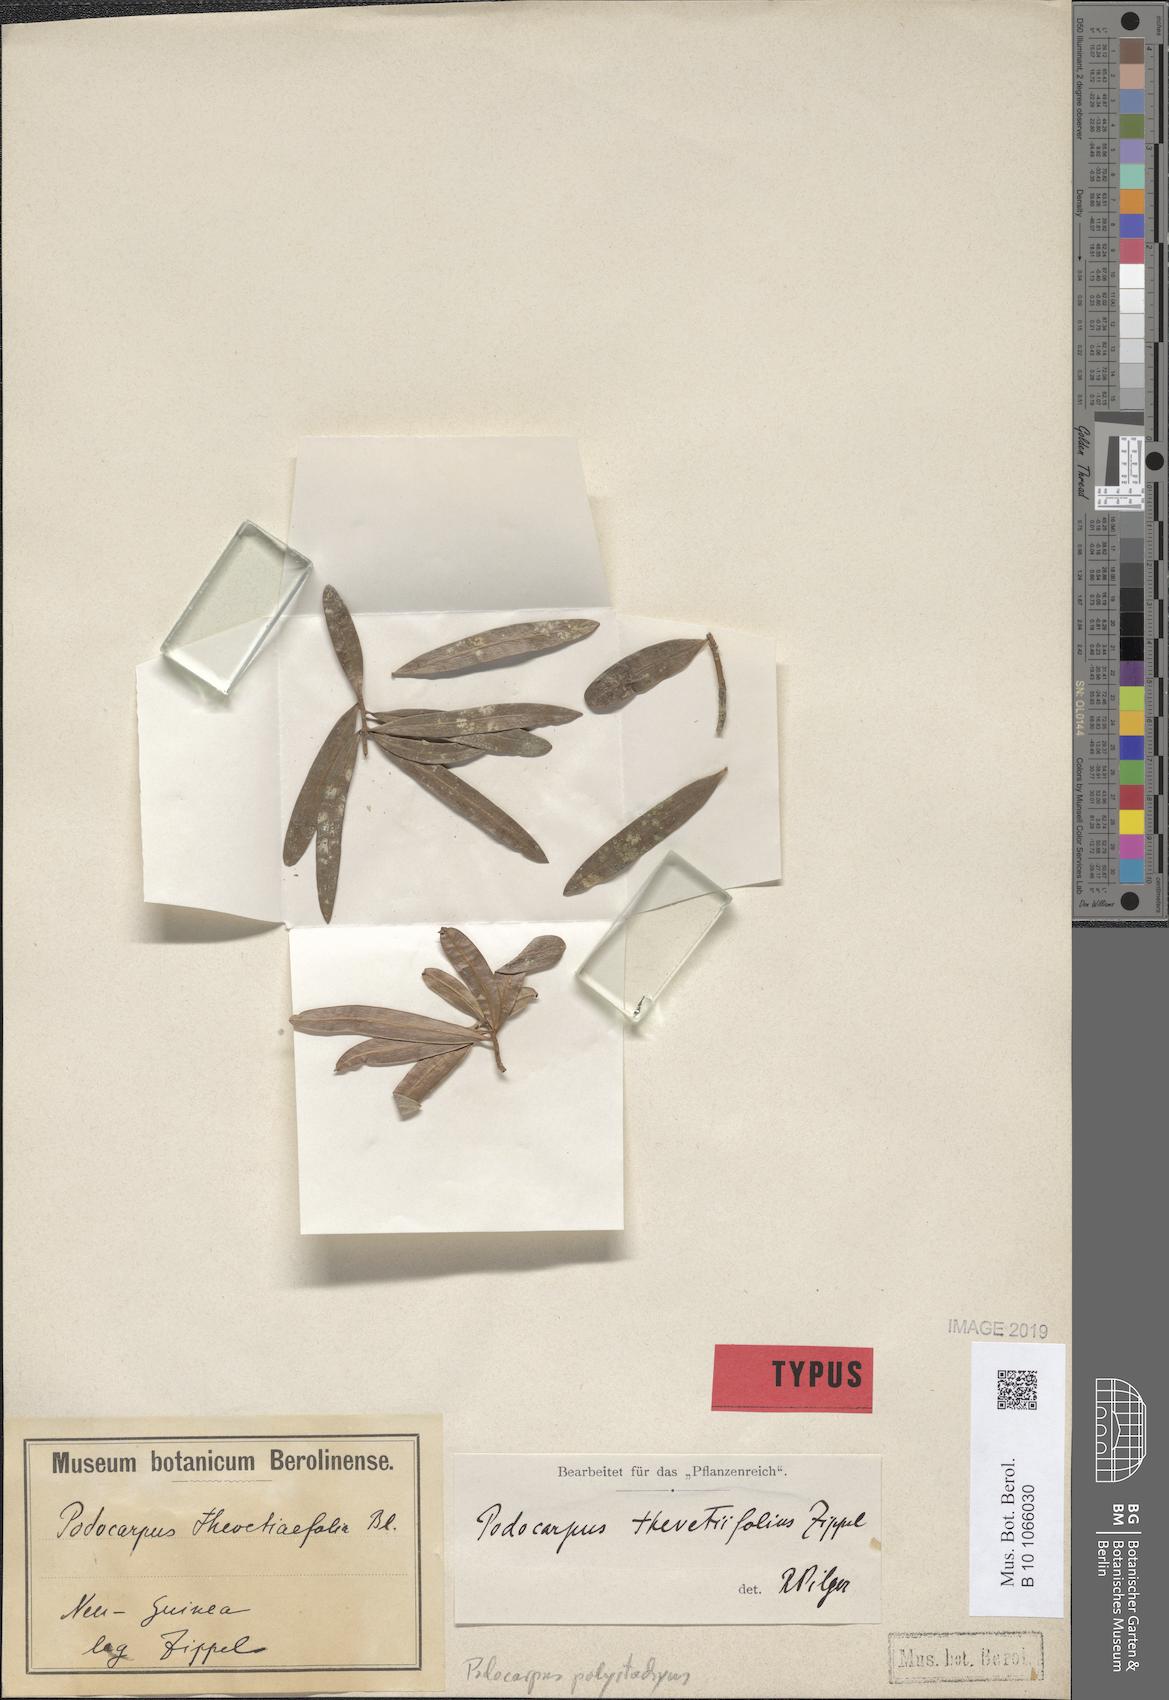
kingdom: Plantae
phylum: Tracheophyta
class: Pinopsida
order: Pinales
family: Podocarpaceae
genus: Podocarpus
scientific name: Podocarpus polystachyus
